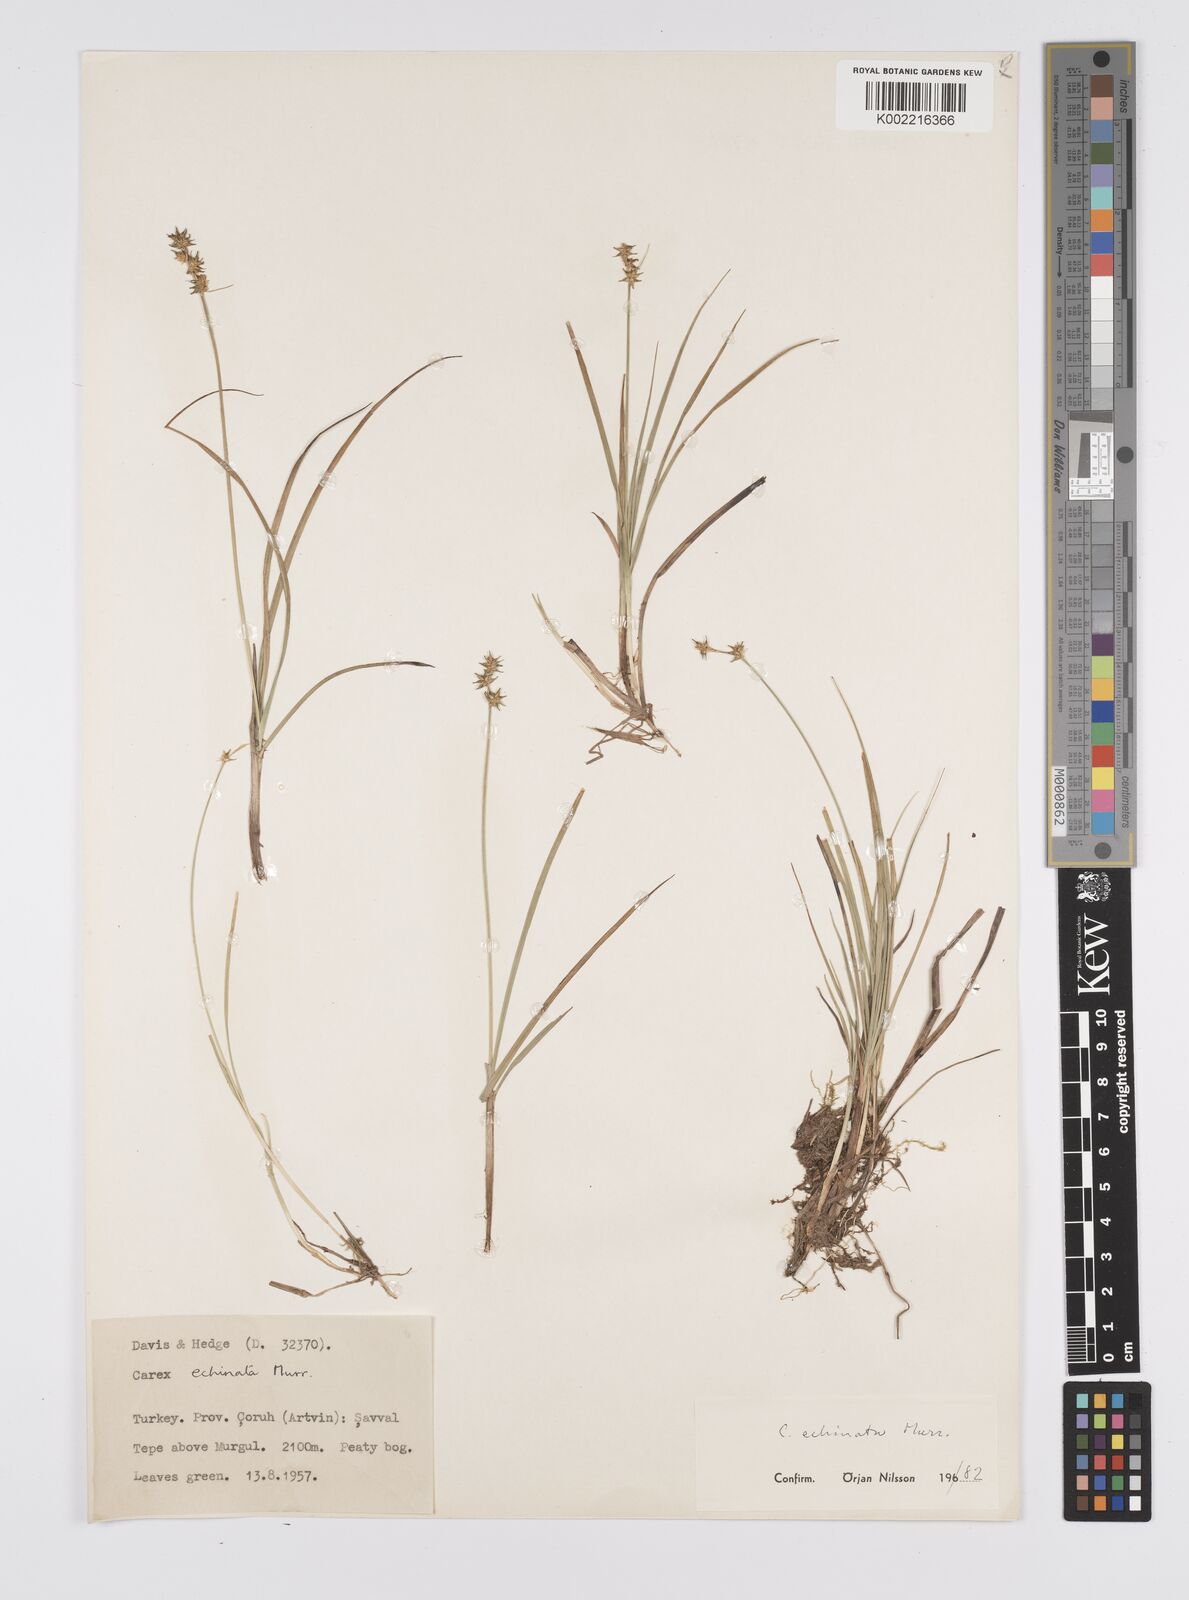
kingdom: Plantae
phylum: Tracheophyta
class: Liliopsida
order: Poales
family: Cyperaceae
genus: Carex
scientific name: Carex echinata
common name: Star sedge
